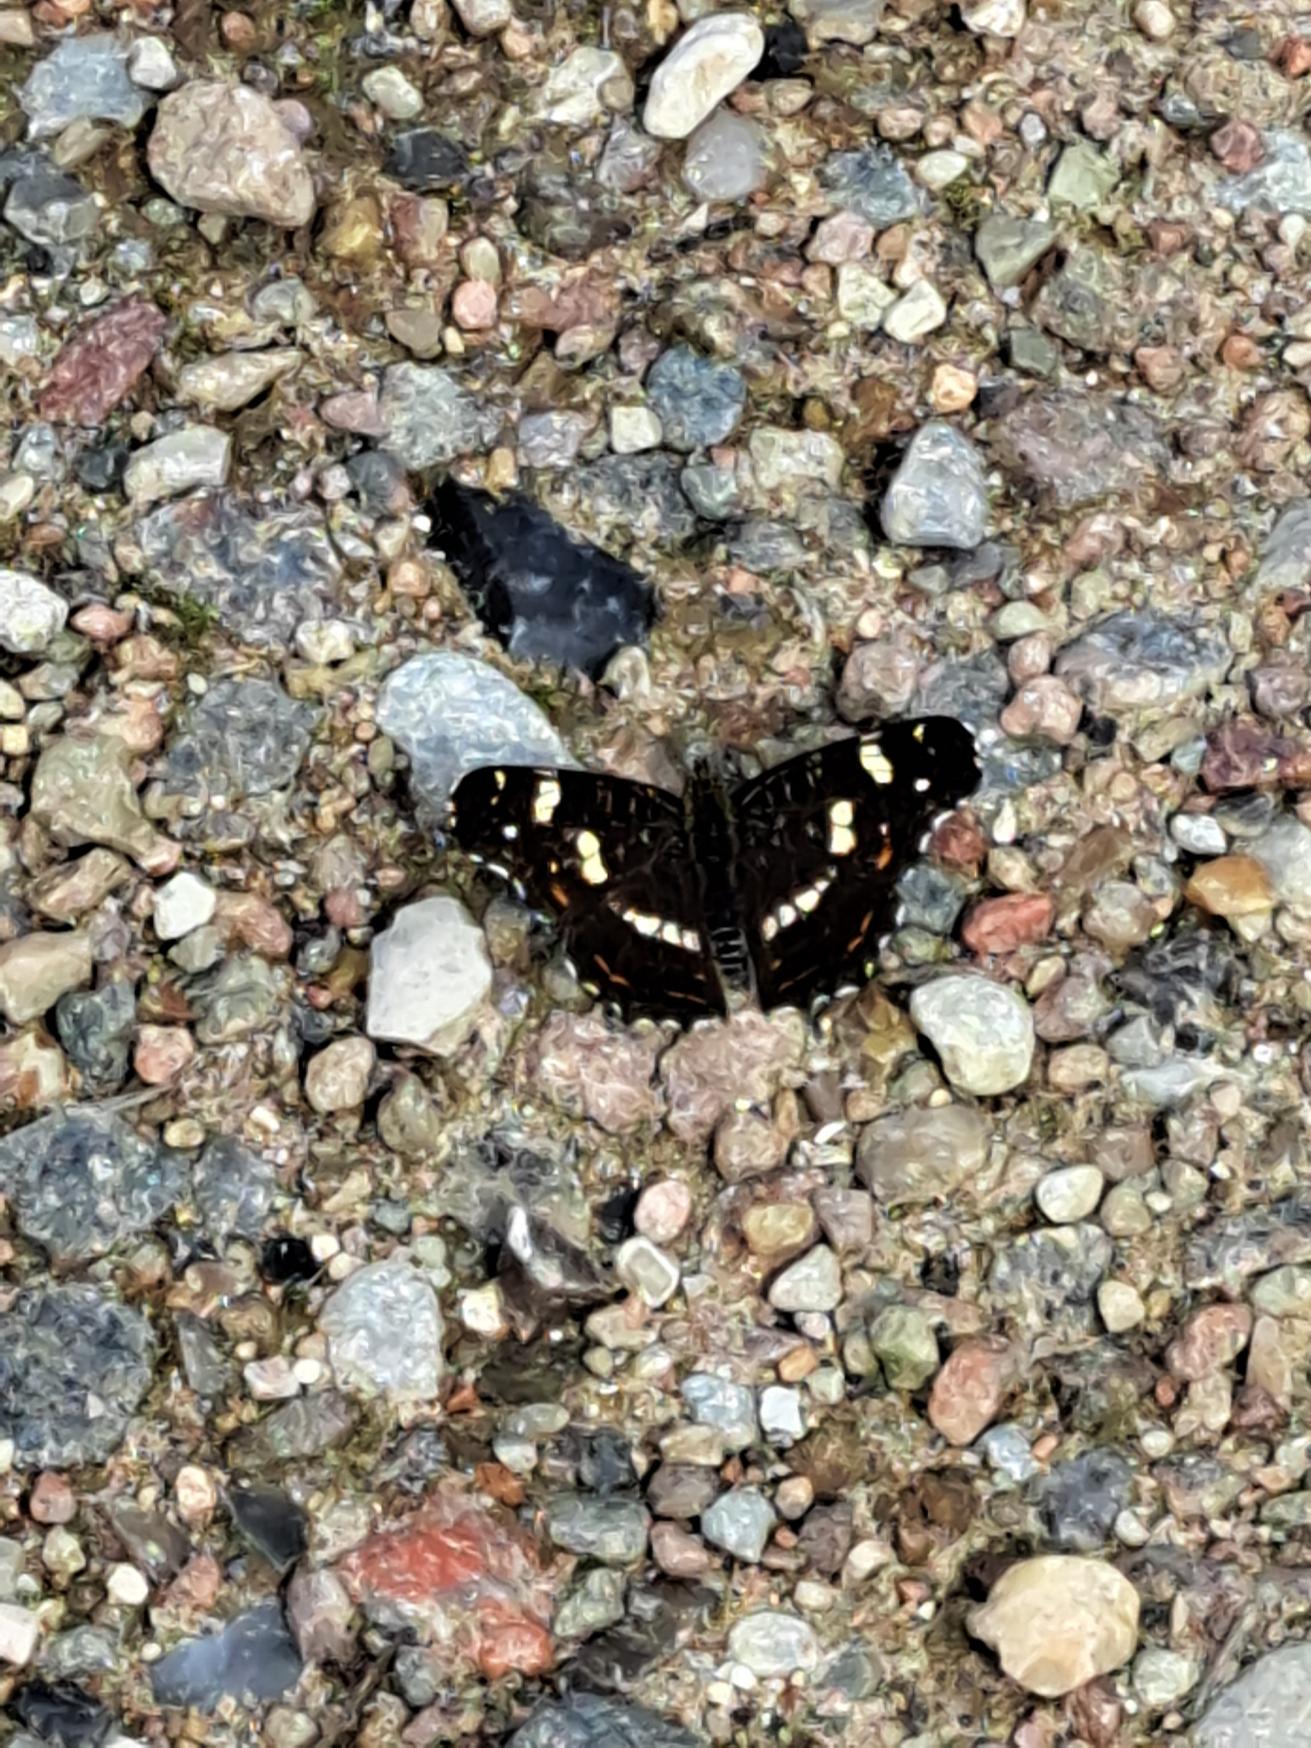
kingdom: Animalia
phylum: Arthropoda
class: Insecta
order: Lepidoptera
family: Nymphalidae
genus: Araschnia
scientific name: Araschnia levana
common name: Nældesommerfugl
